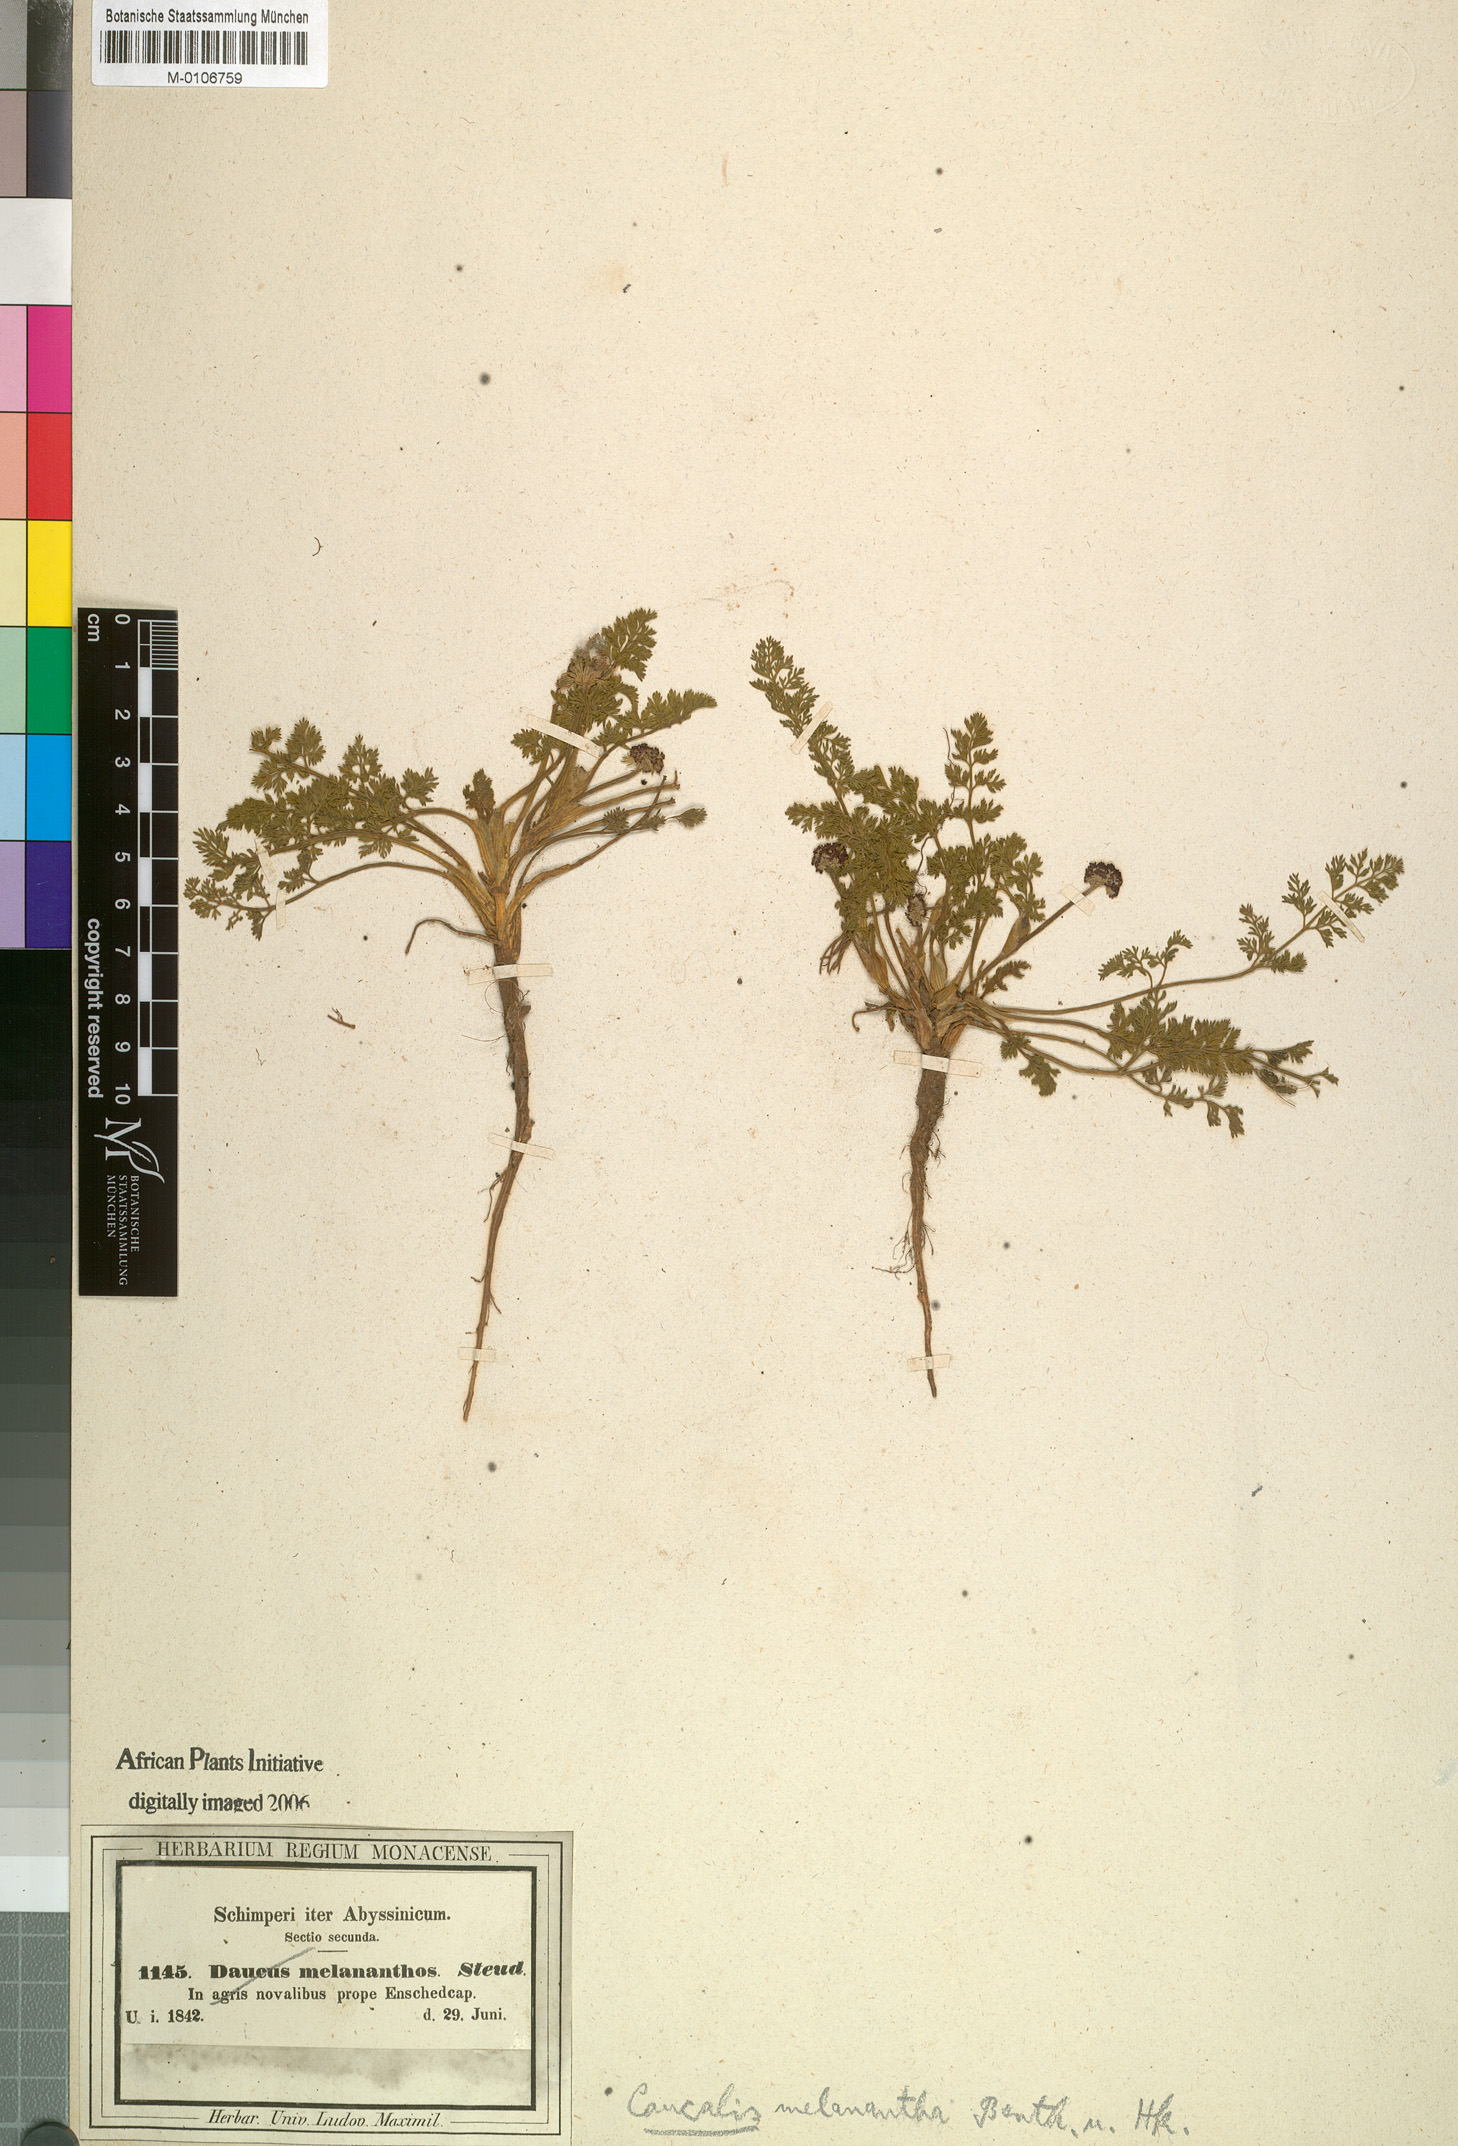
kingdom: Plantae
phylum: Tracheophyta
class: Magnoliopsida
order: Apiales
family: Apiaceae
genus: Daucus
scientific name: Daucus melananthus
